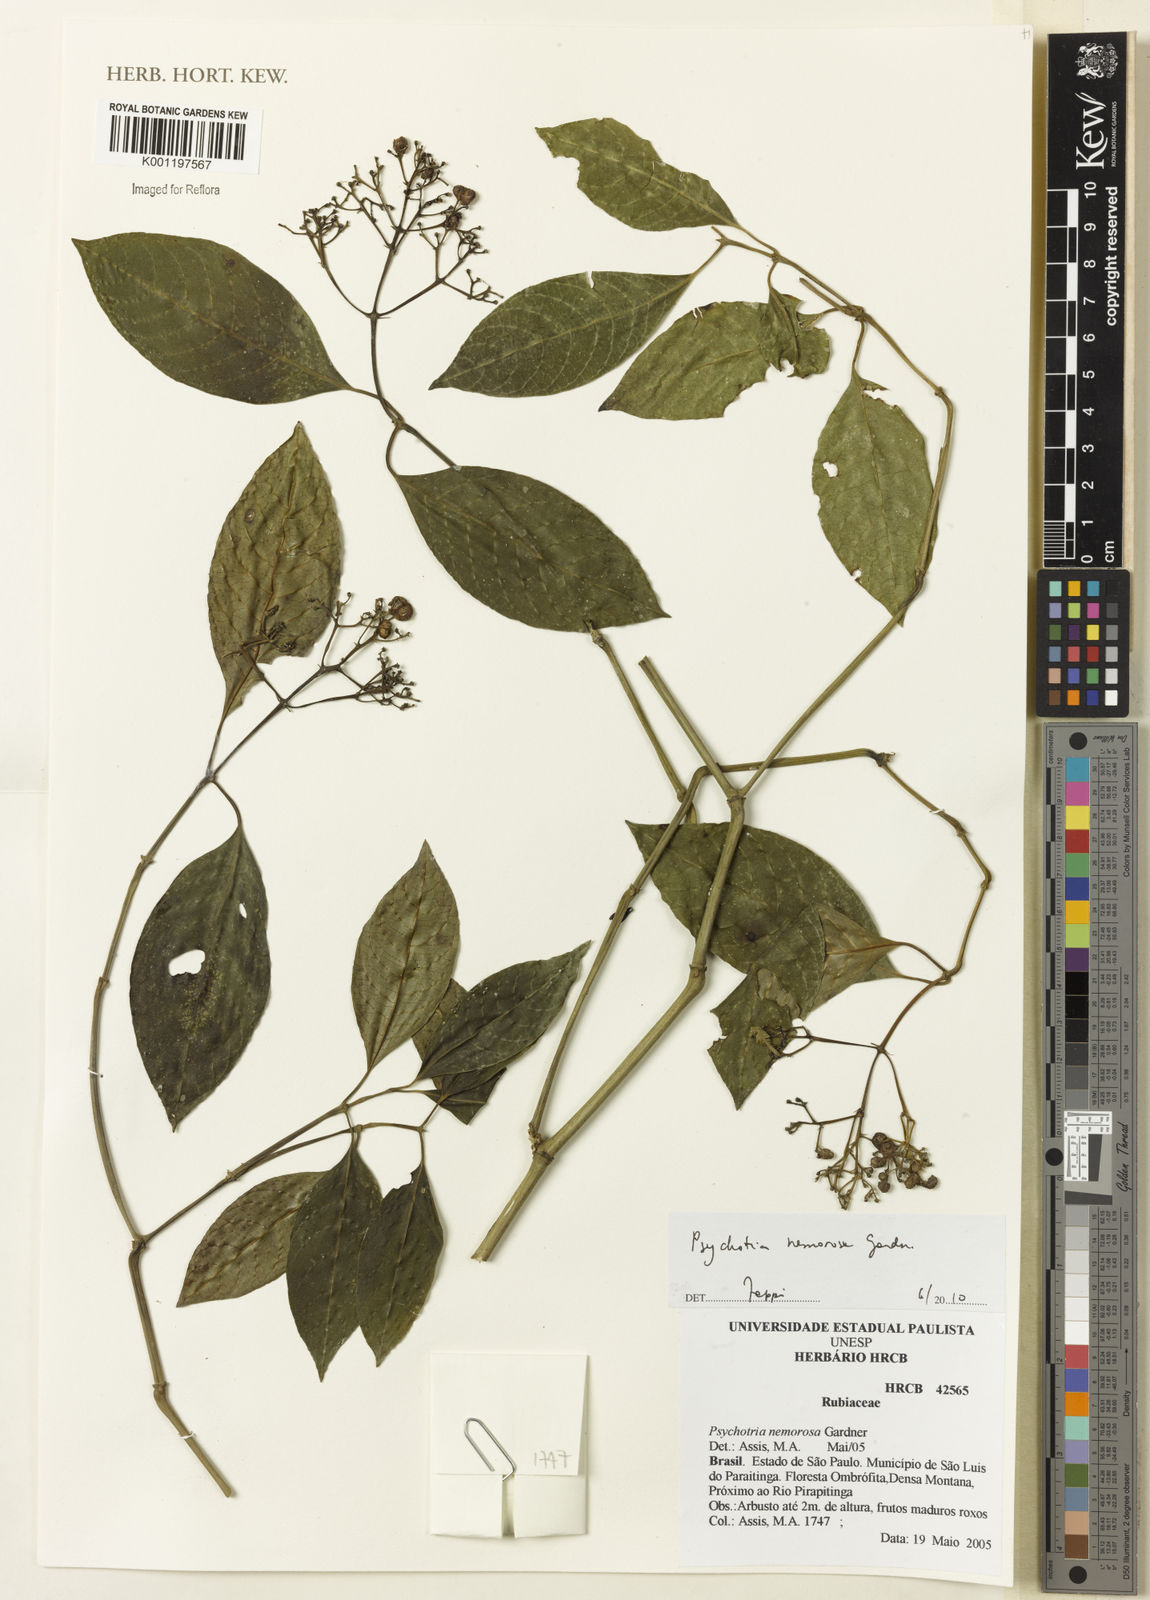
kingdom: Plantae
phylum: Tracheophyta
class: Magnoliopsida
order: Gentianales
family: Rubiaceae
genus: Psychotria
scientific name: Psychotria nemorosa
